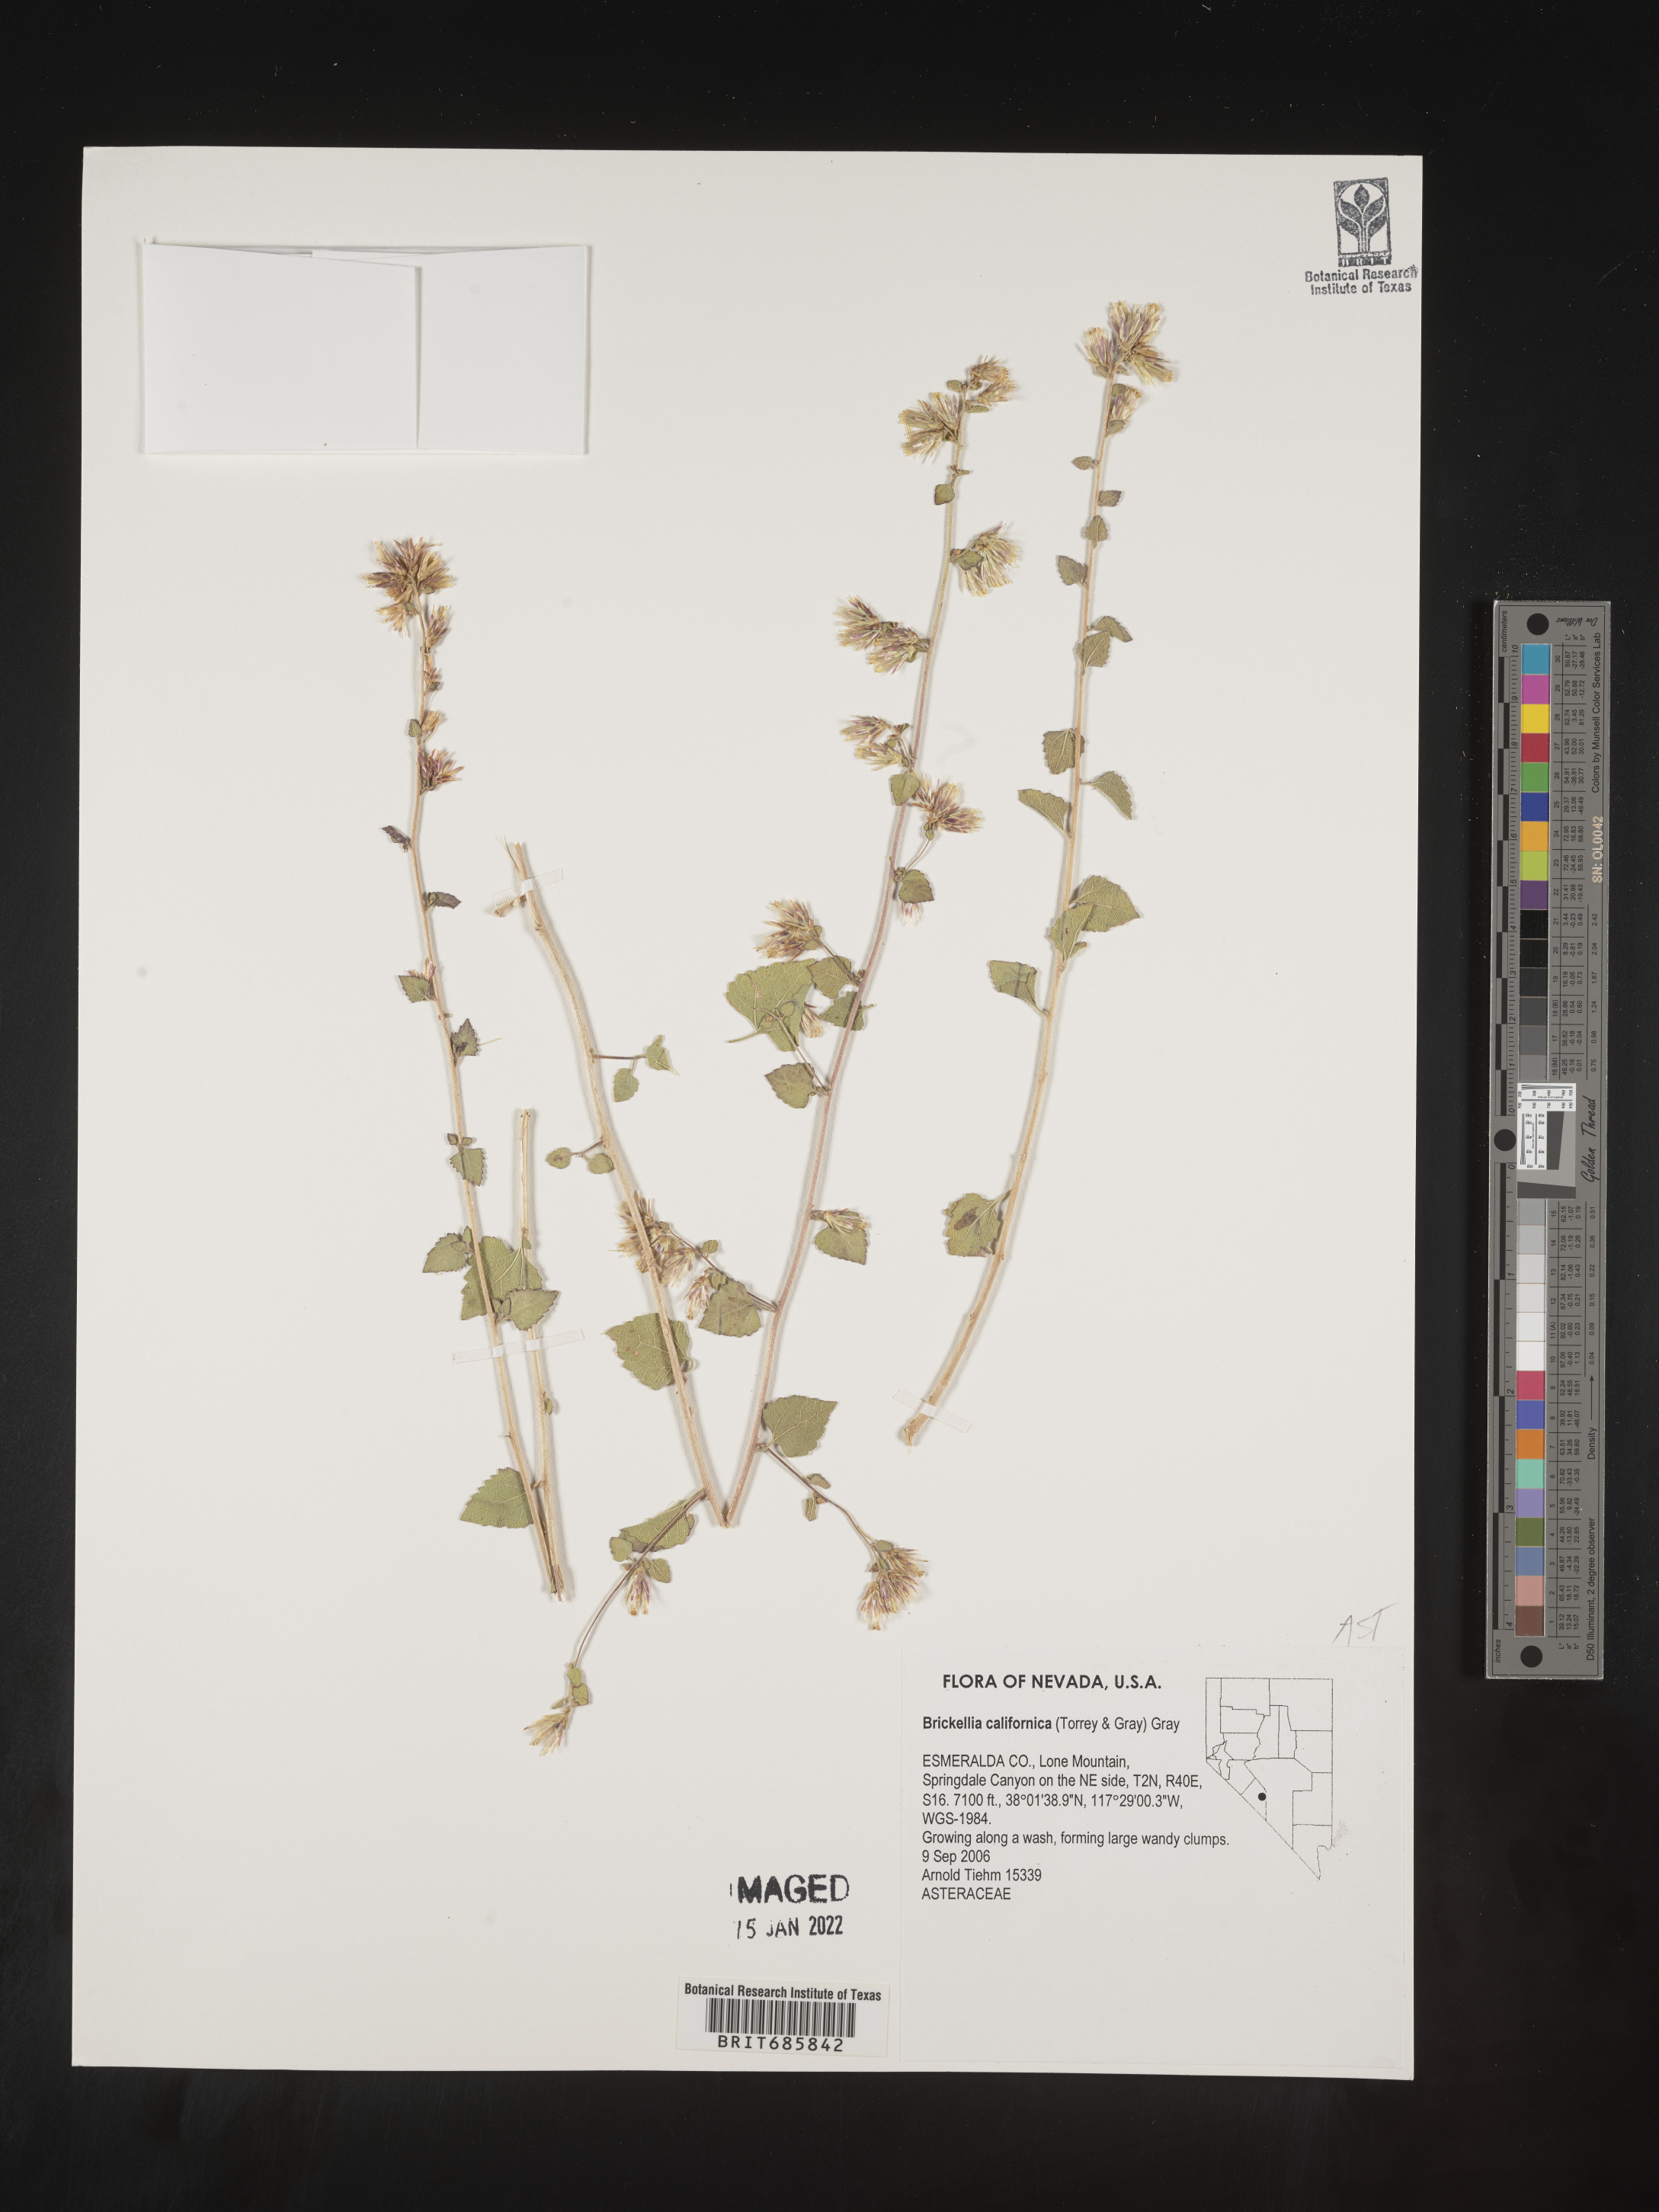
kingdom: Plantae
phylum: Tracheophyta
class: Magnoliopsida
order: Asterales
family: Asteraceae
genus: Brickellia
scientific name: Brickellia californica
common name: California brickellbush
